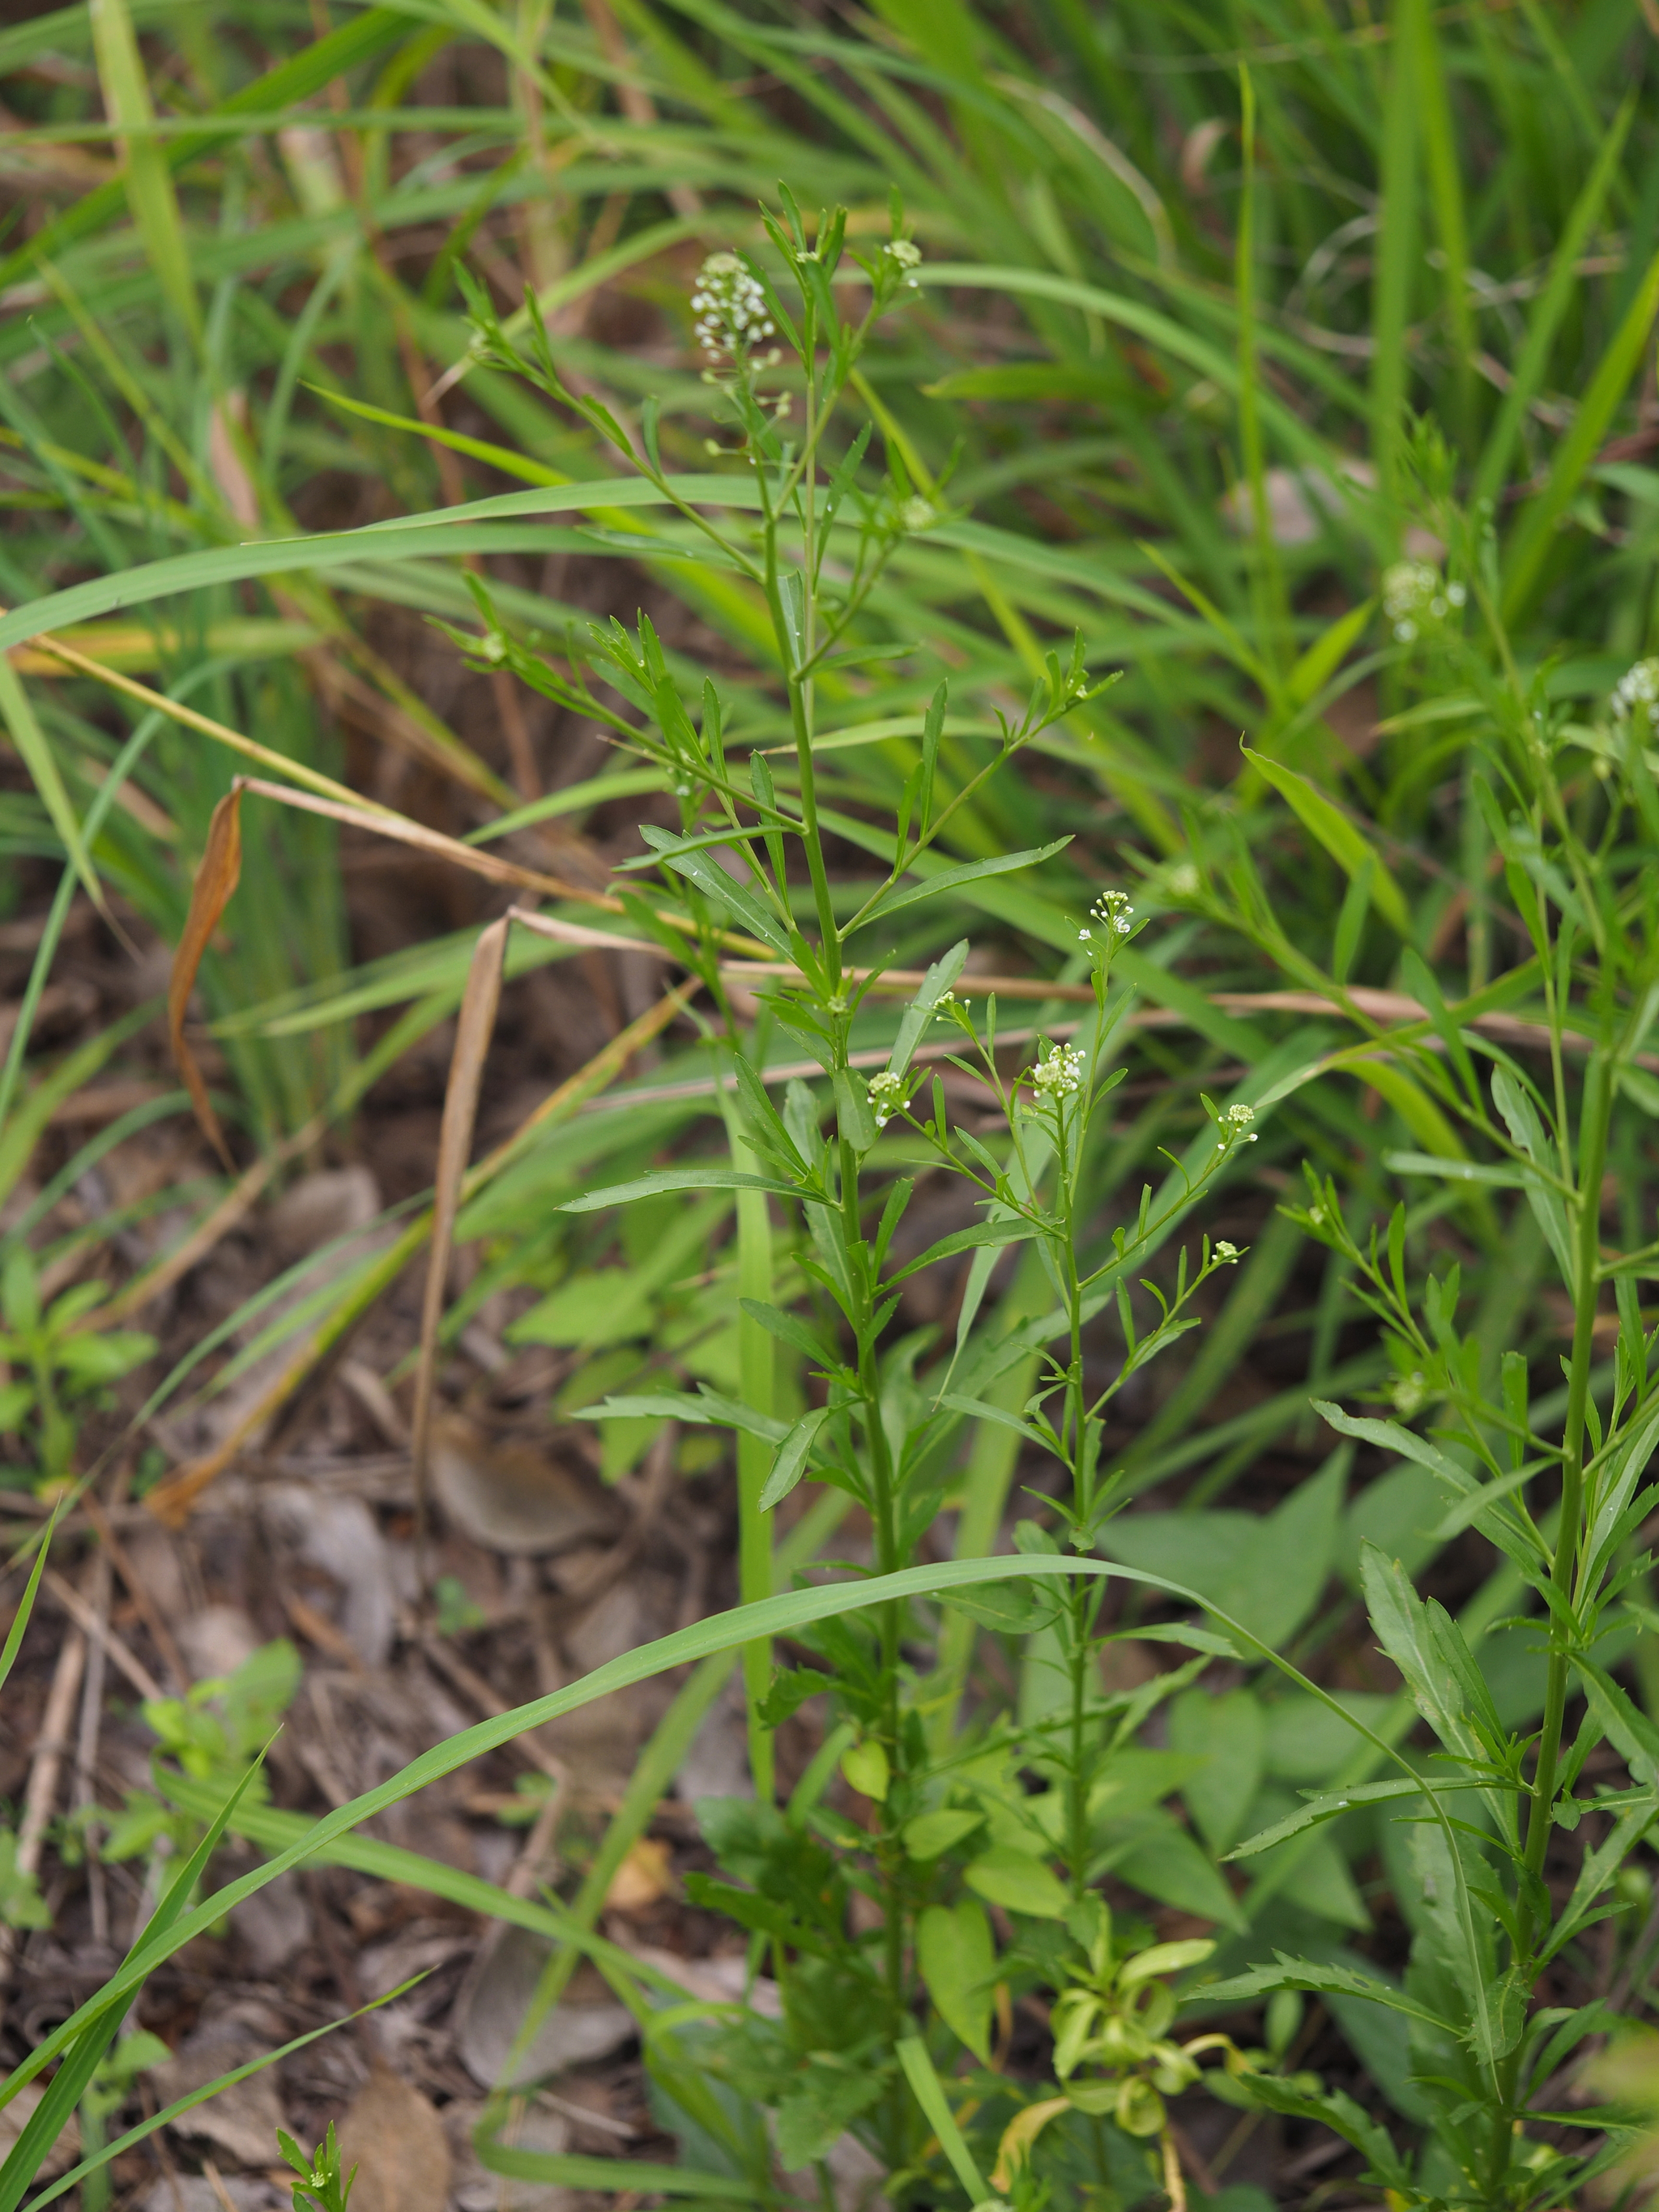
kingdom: Plantae
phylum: Tracheophyta
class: Magnoliopsida
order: Brassicales
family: Brassicaceae
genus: Lepidium
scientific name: Lepidium virginicum
